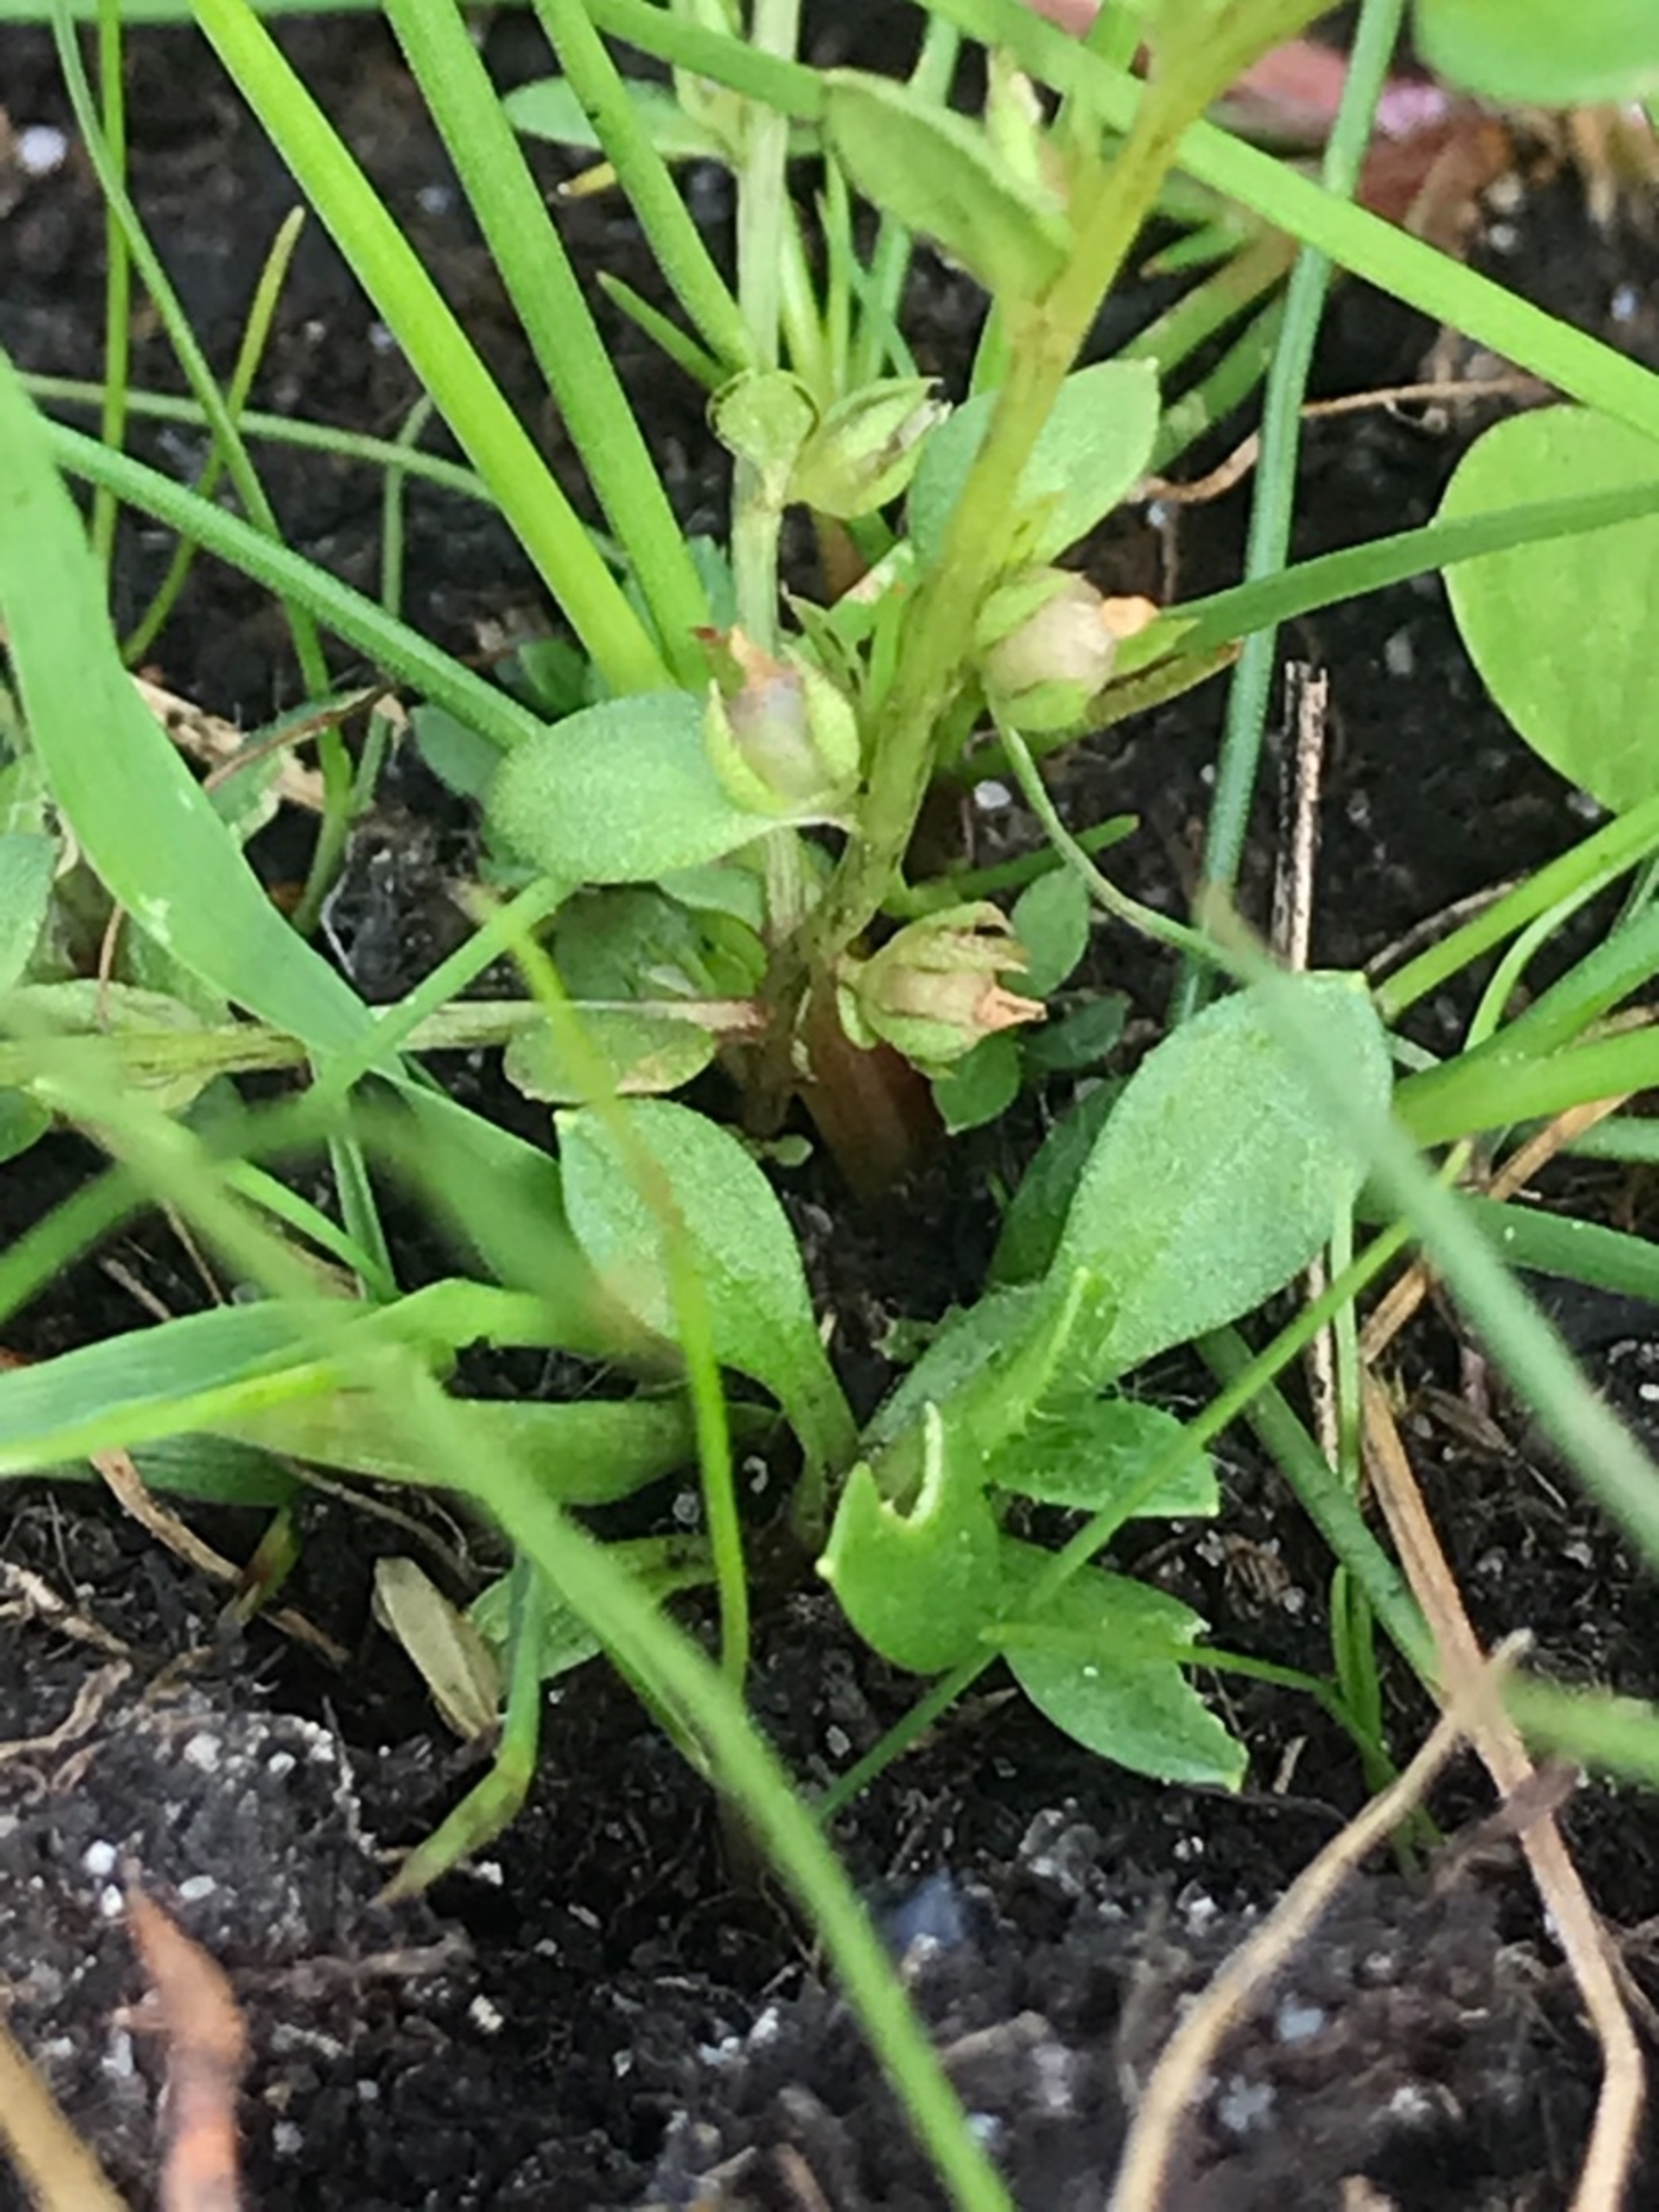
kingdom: Plantae
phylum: Tracheophyta
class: Magnoliopsida
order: Ericales
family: Primulaceae
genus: Lysimachia
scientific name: Lysimachia minima
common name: Knudearve
